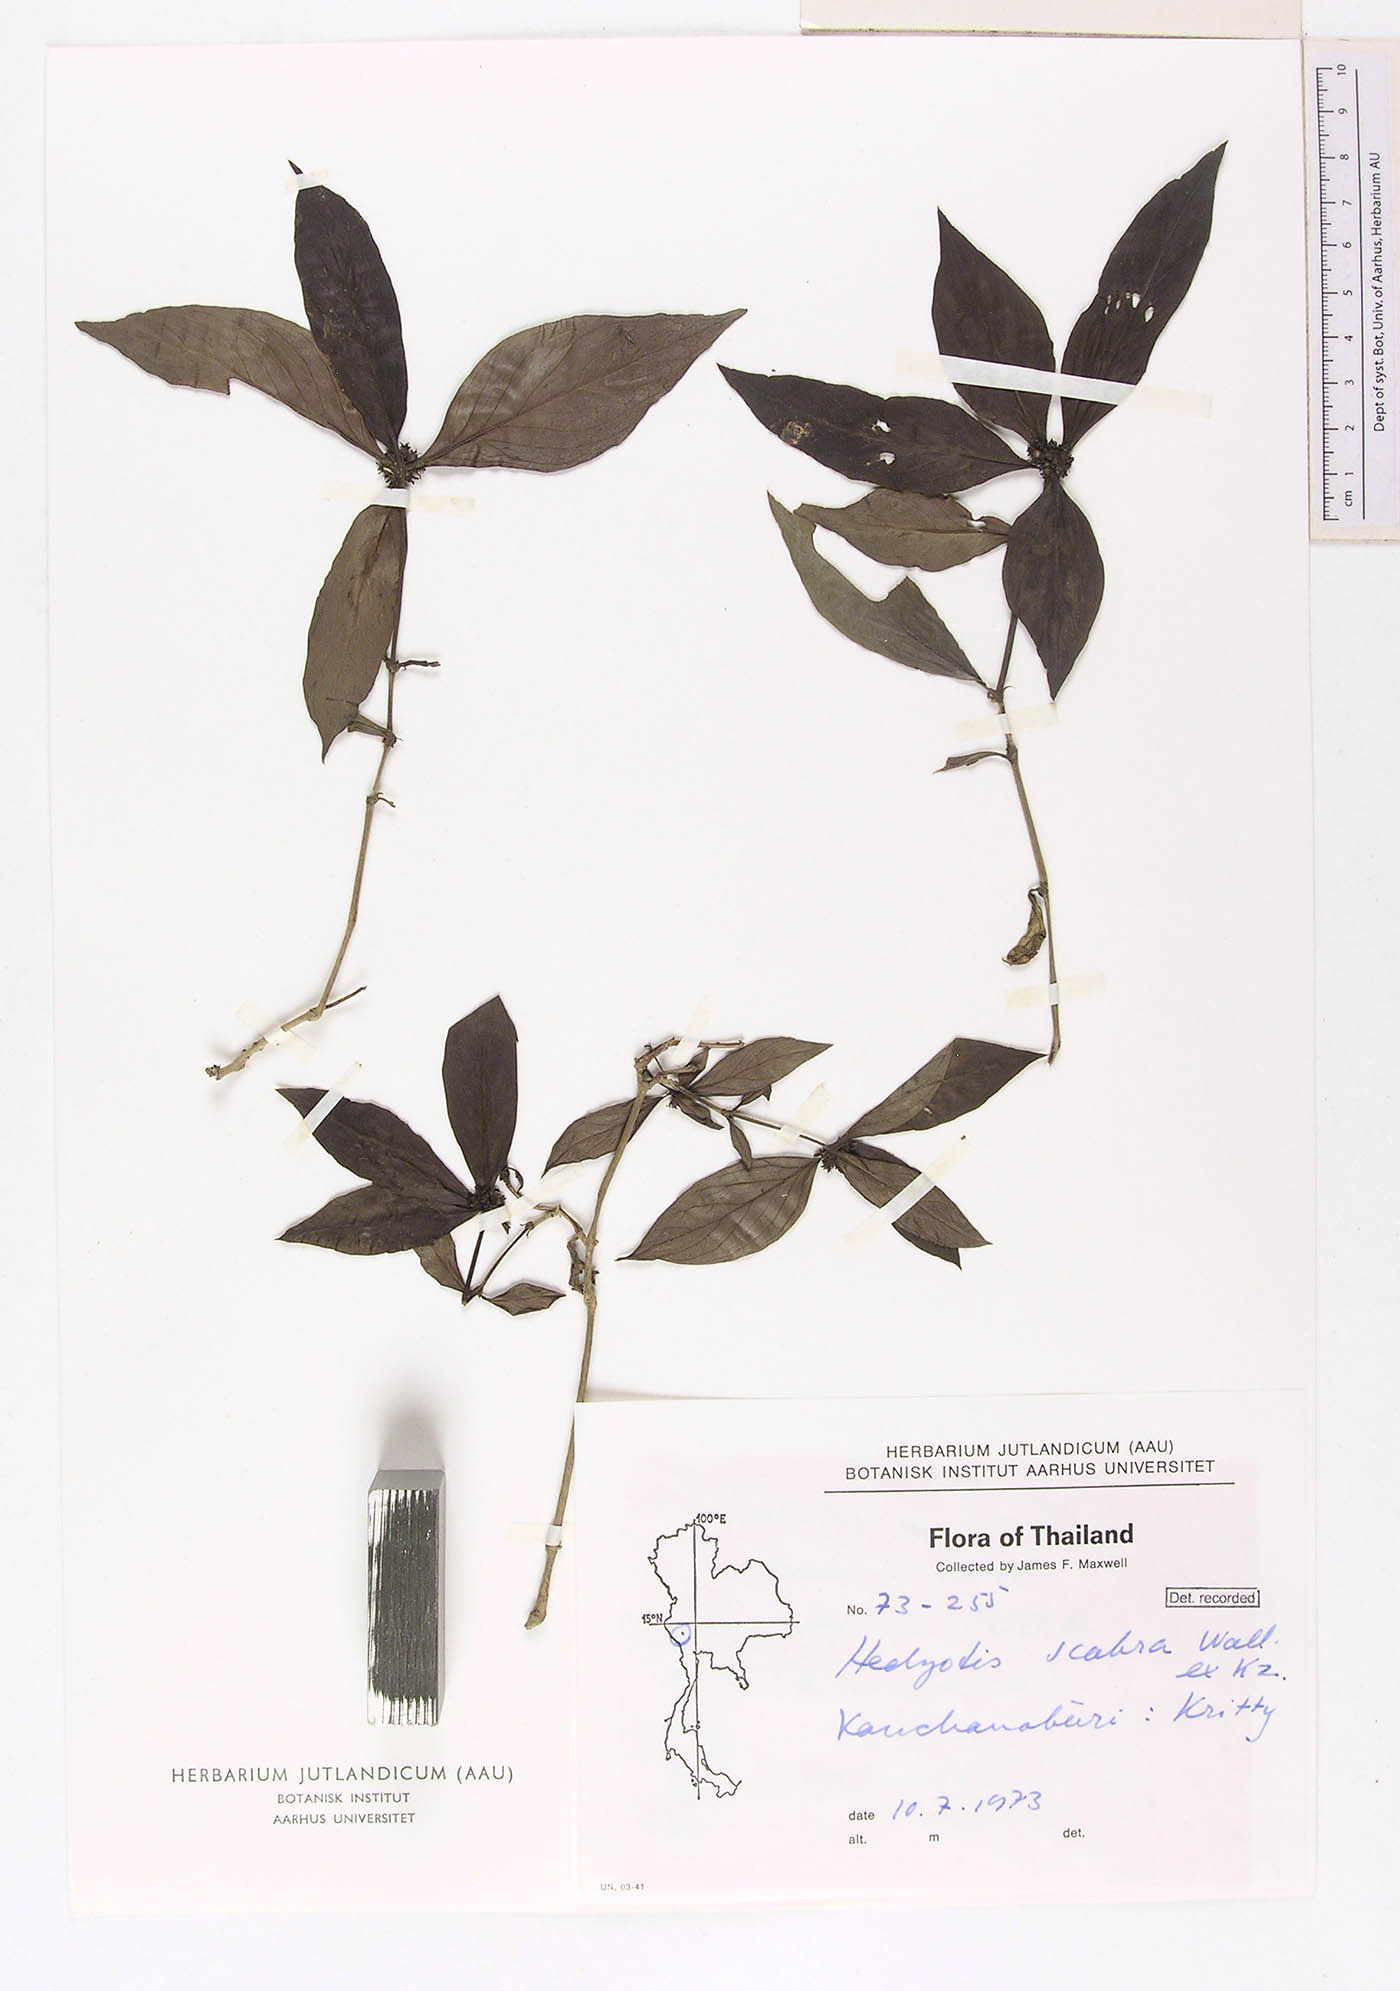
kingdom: Plantae
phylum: Tracheophyta
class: Magnoliopsida
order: Gentianales
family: Rubiaceae
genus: Hedyotis
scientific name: Hedyotis scabra
